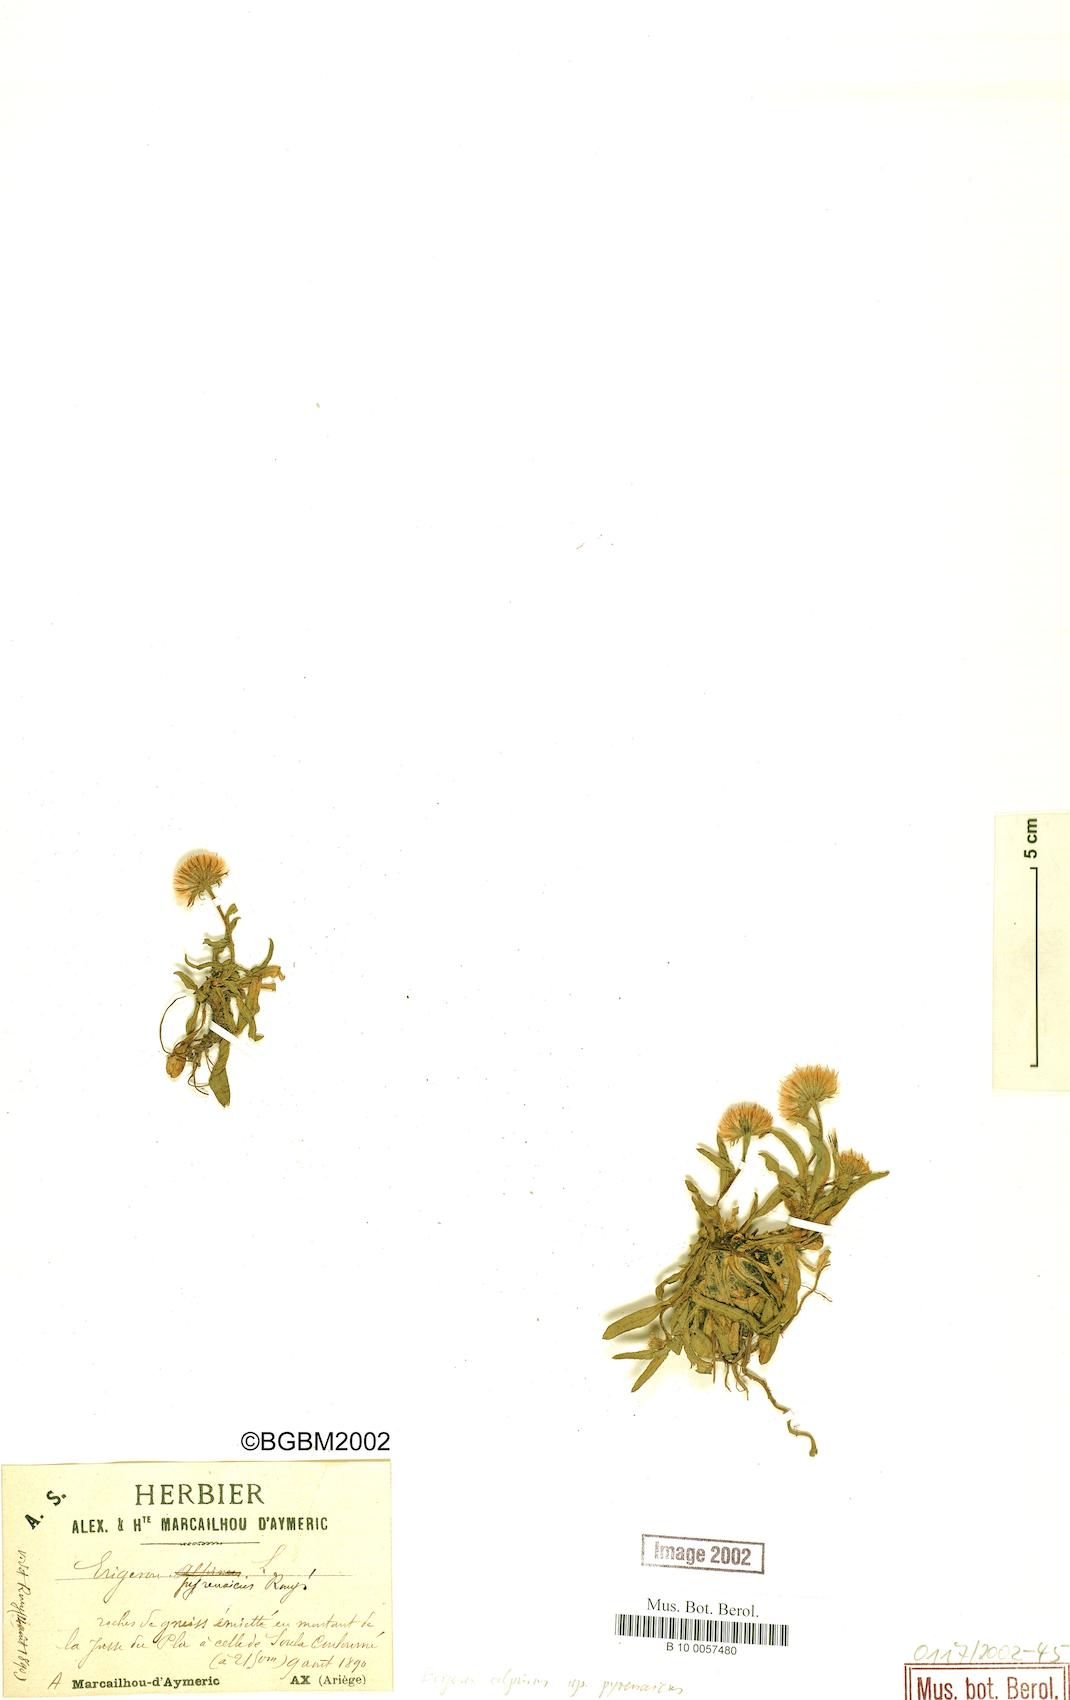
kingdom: Plantae
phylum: Tracheophyta
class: Magnoliopsida
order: Asterales
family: Asteraceae
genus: Erigeron
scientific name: Erigeron uniflorus
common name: Northern daisy
